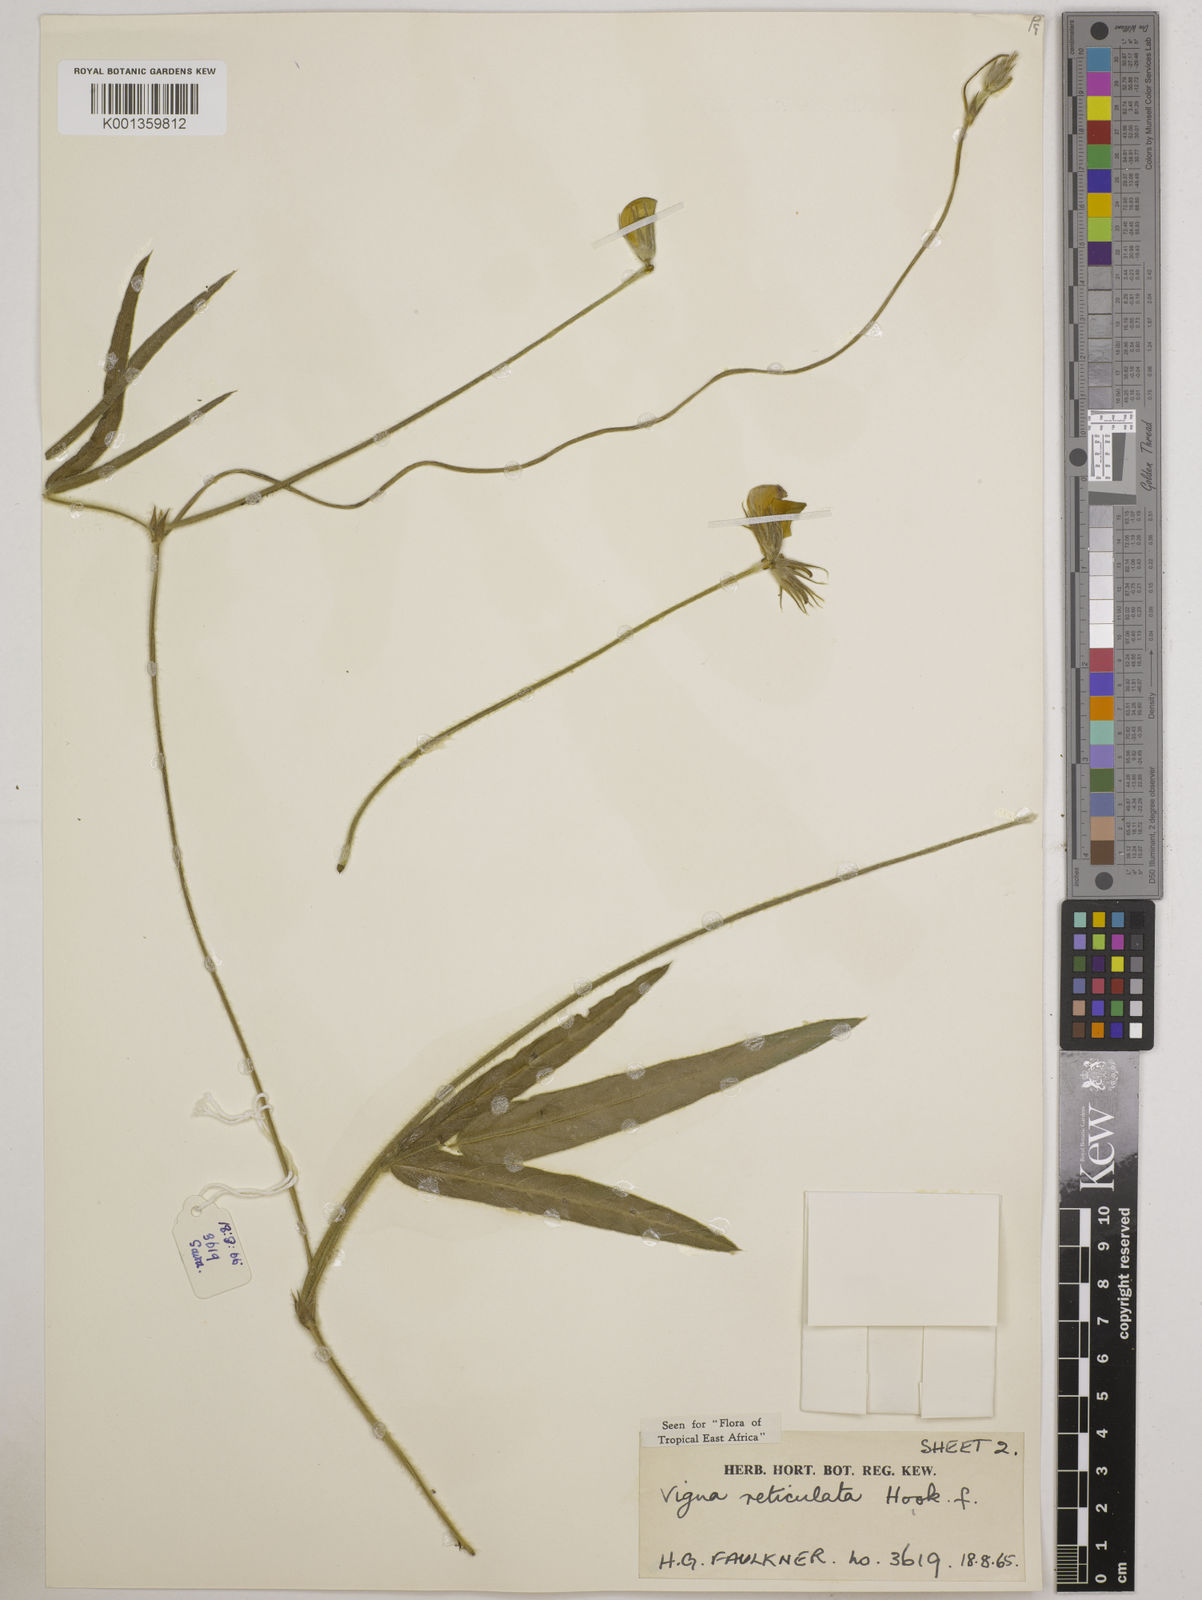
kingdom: Plantae
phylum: Tracheophyta
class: Magnoliopsida
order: Fabales
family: Fabaceae
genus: Vigna
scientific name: Vigna reticulata
